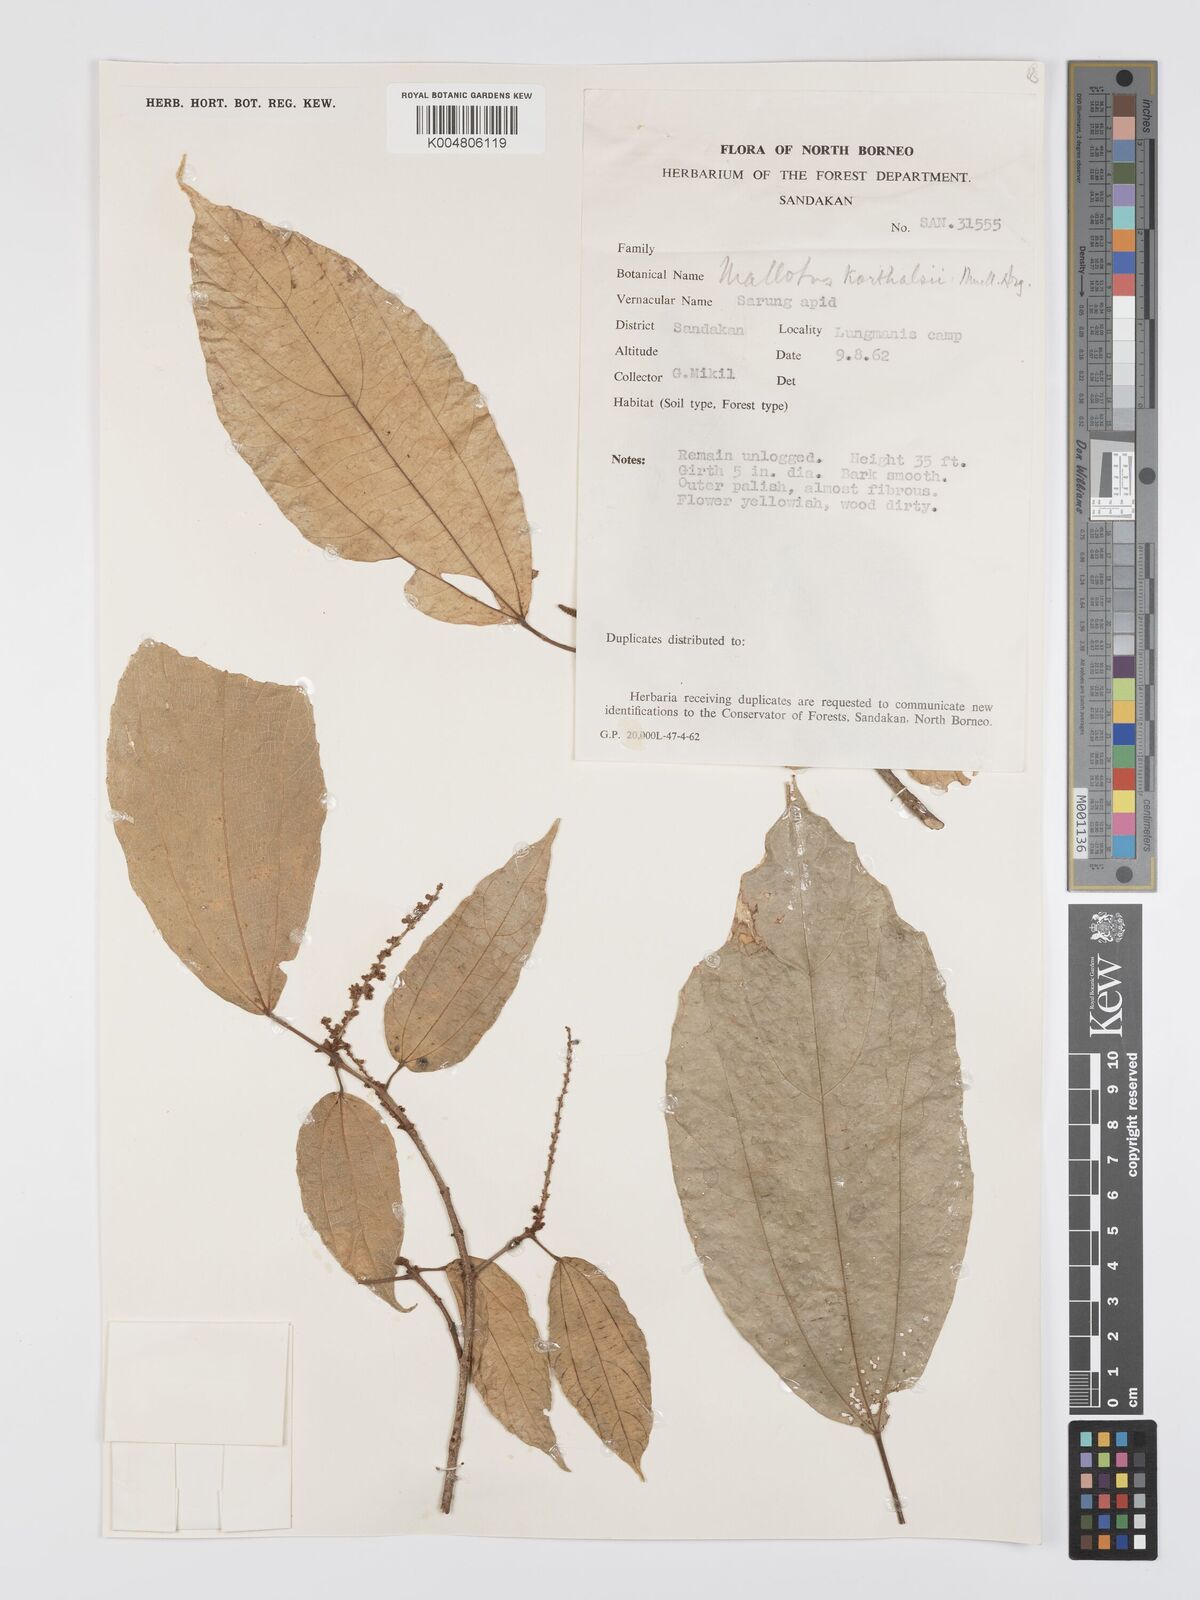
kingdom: Plantae
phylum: Tracheophyta
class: Magnoliopsida
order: Malpighiales
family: Euphorbiaceae
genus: Mallotus
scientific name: Mallotus korthalsii
